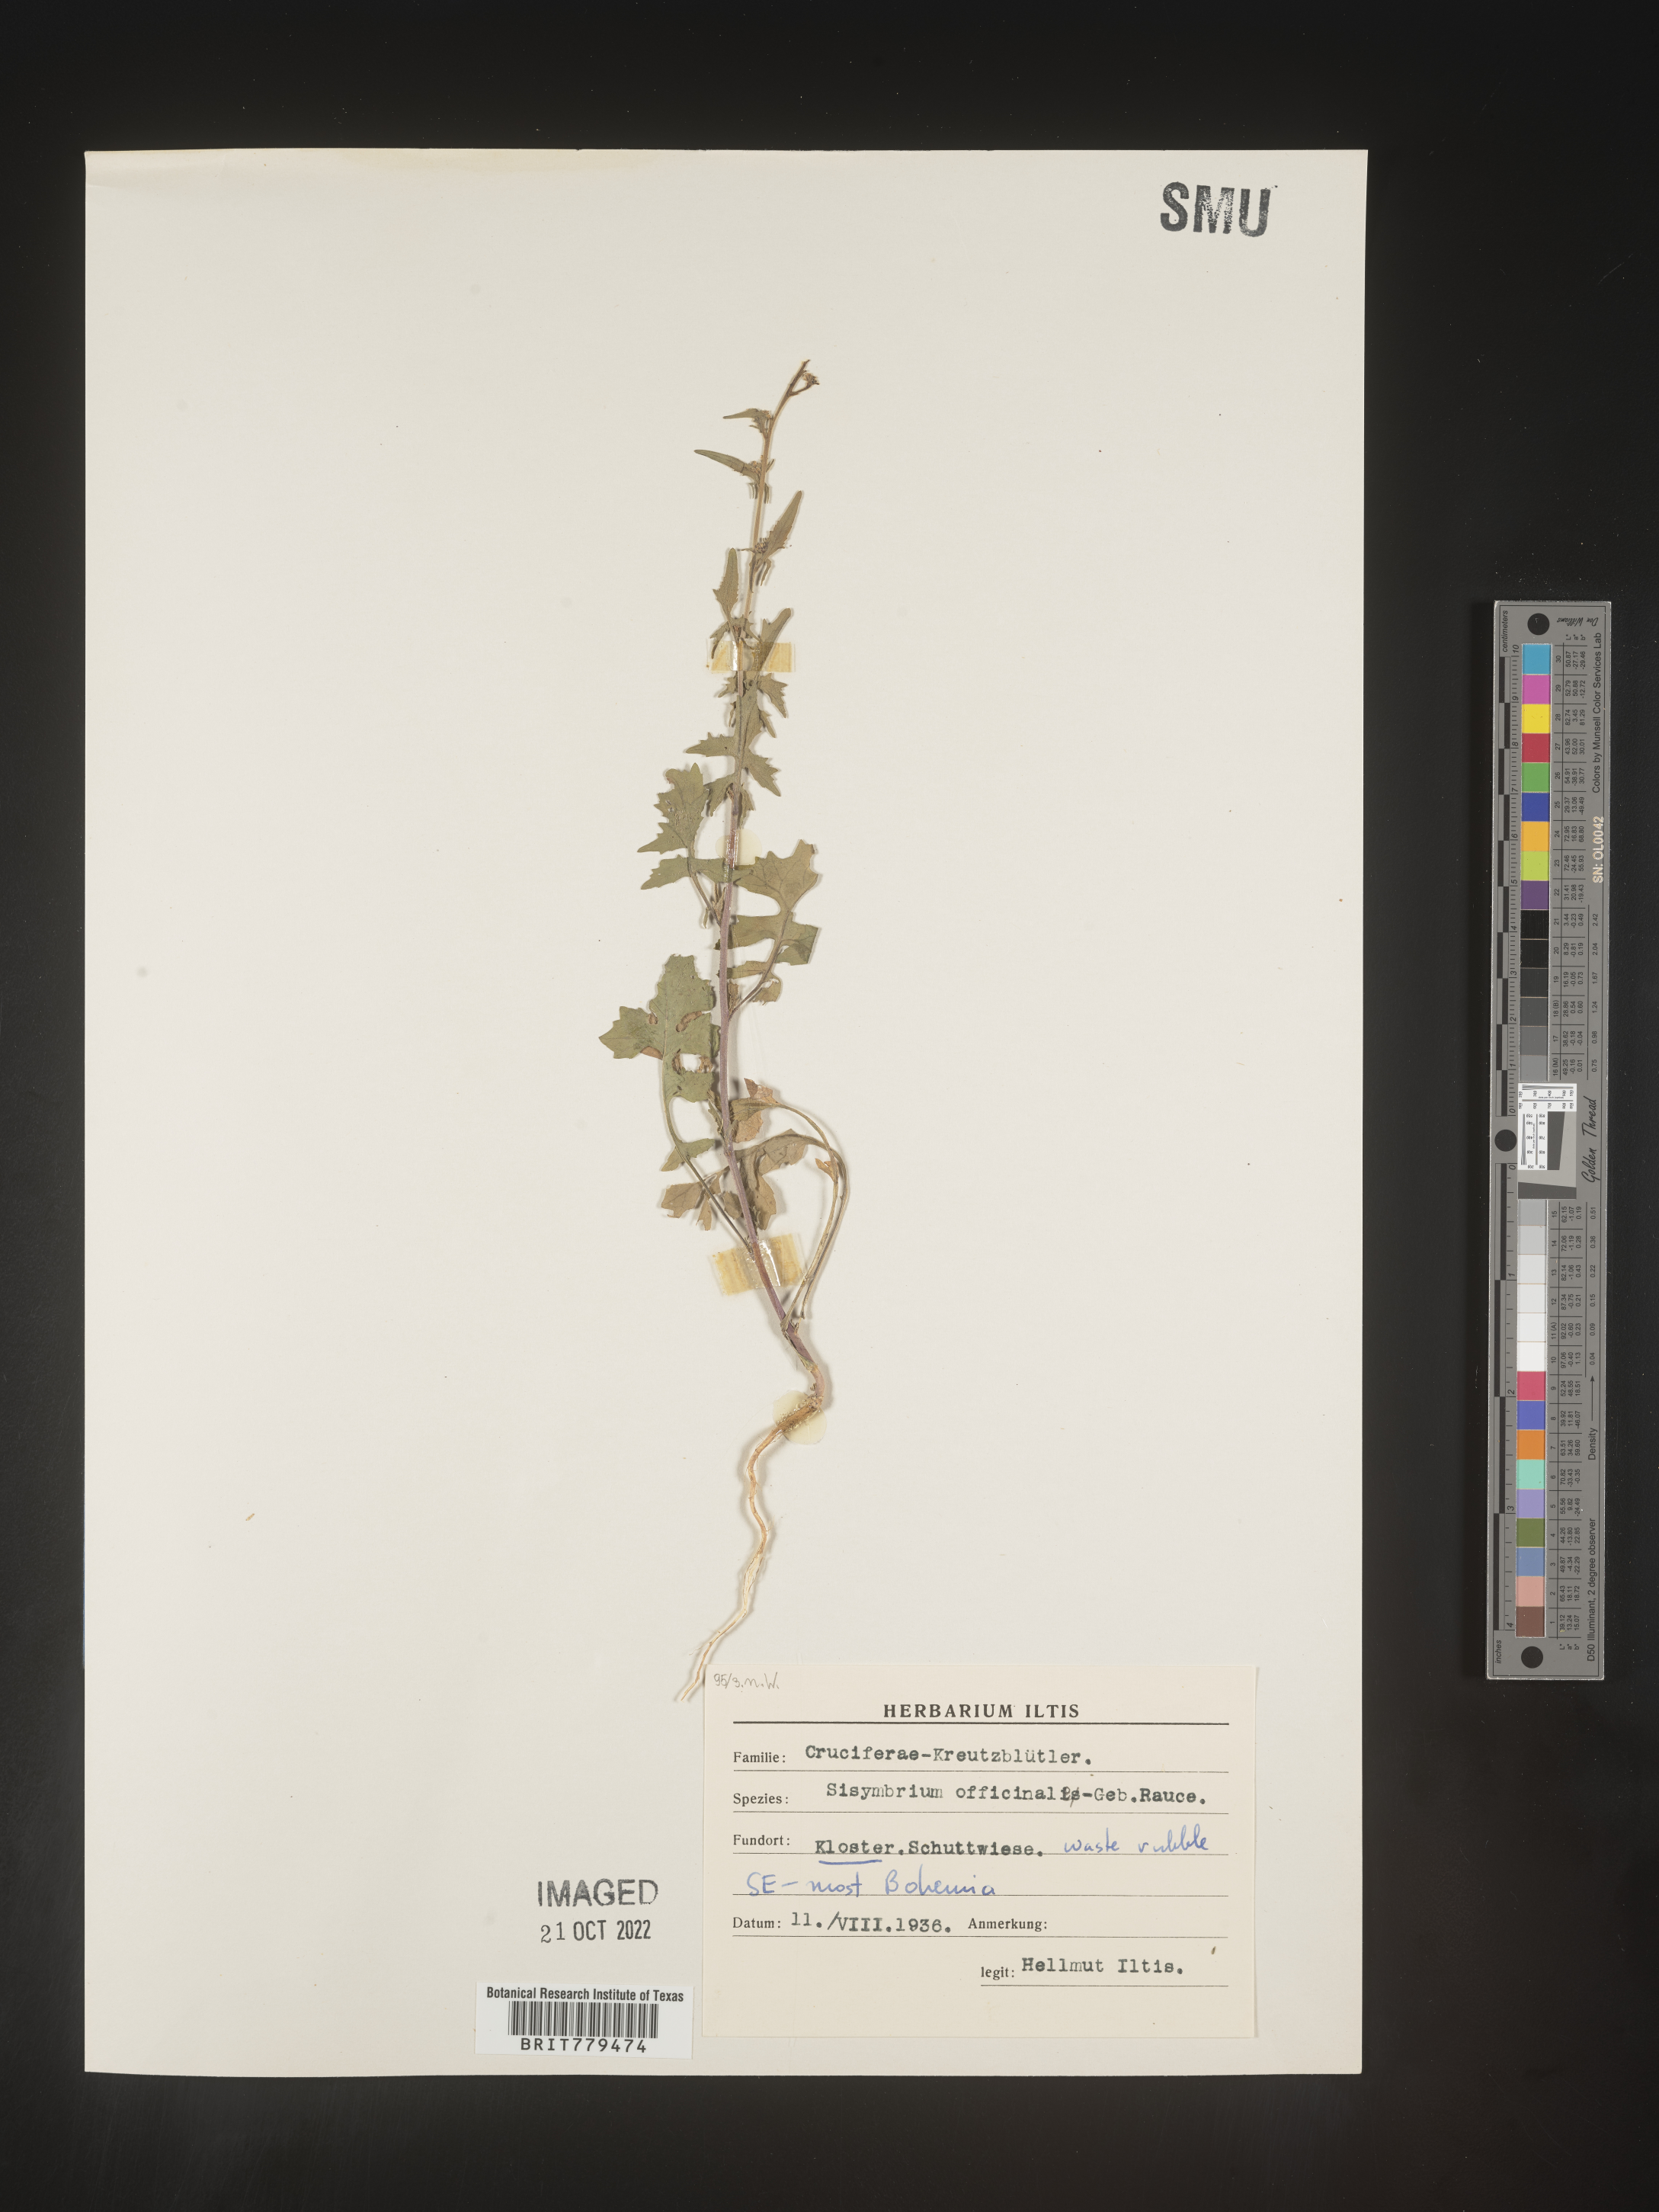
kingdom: Plantae
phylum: Tracheophyta
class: Magnoliopsida
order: Brassicales
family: Brassicaceae
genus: Sisymbrium
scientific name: Sisymbrium
